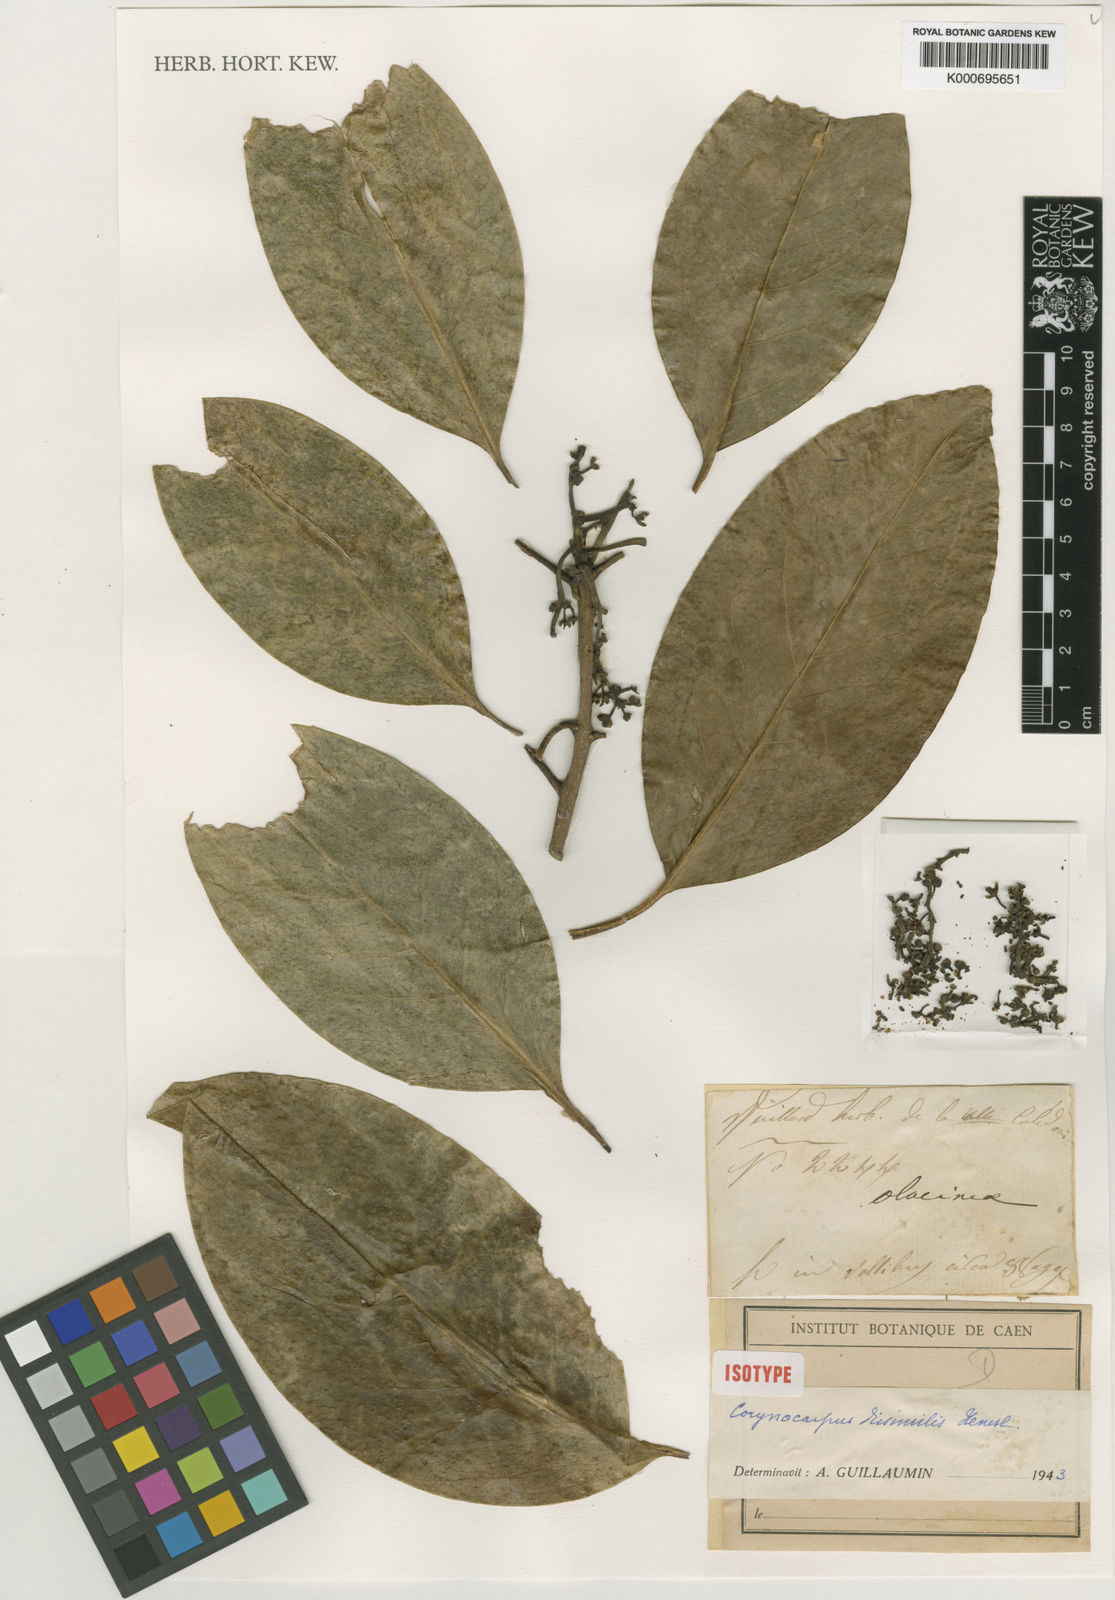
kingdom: Plantae
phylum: Tracheophyta
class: Magnoliopsida
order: Cucurbitales
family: Corynocarpaceae
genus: Corynocarpus
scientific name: Corynocarpus dissimilis
